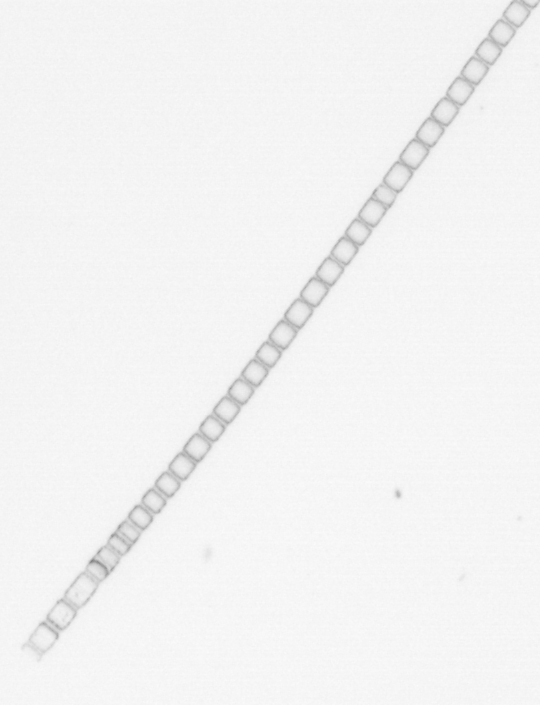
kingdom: Chromista
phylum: Ochrophyta
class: Bacillariophyceae
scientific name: Bacillariophyceae
